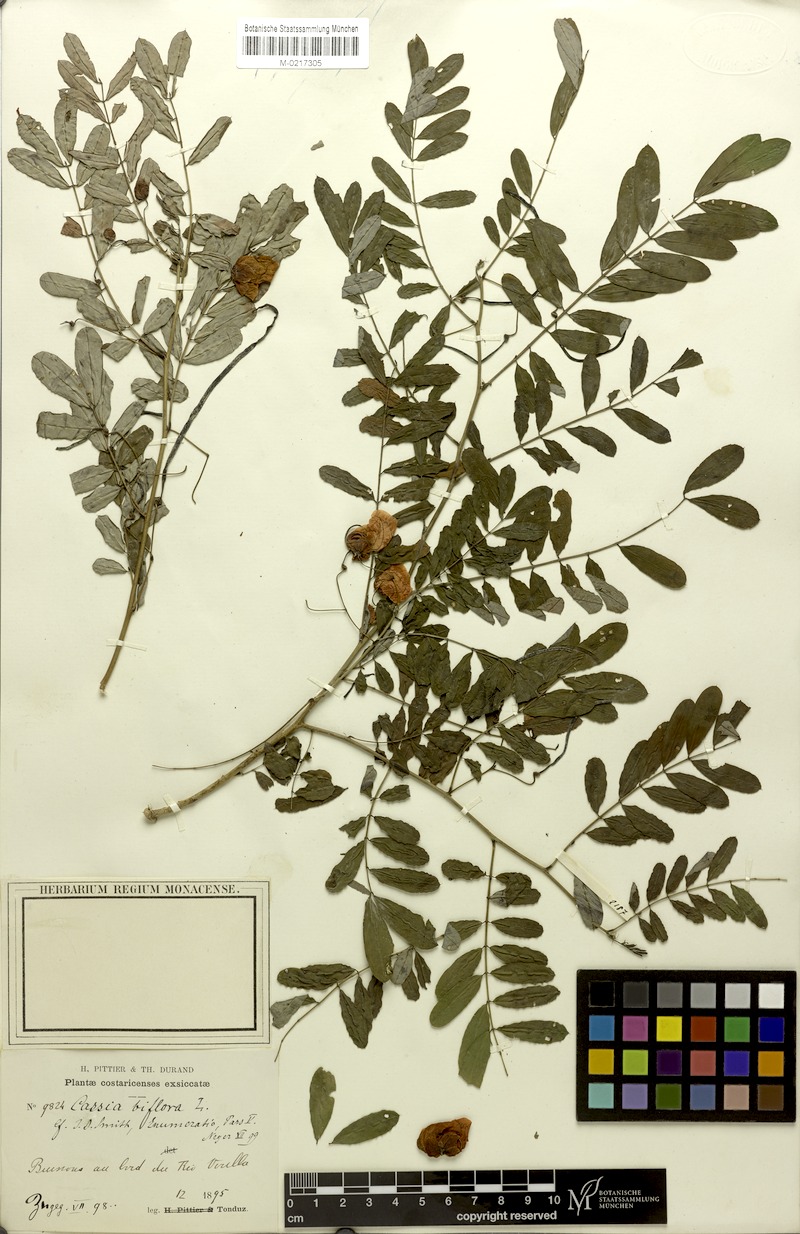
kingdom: Plantae
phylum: Tracheophyta
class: Magnoliopsida
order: Fabales
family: Fabaceae
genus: Senna
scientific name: Senna pallida
